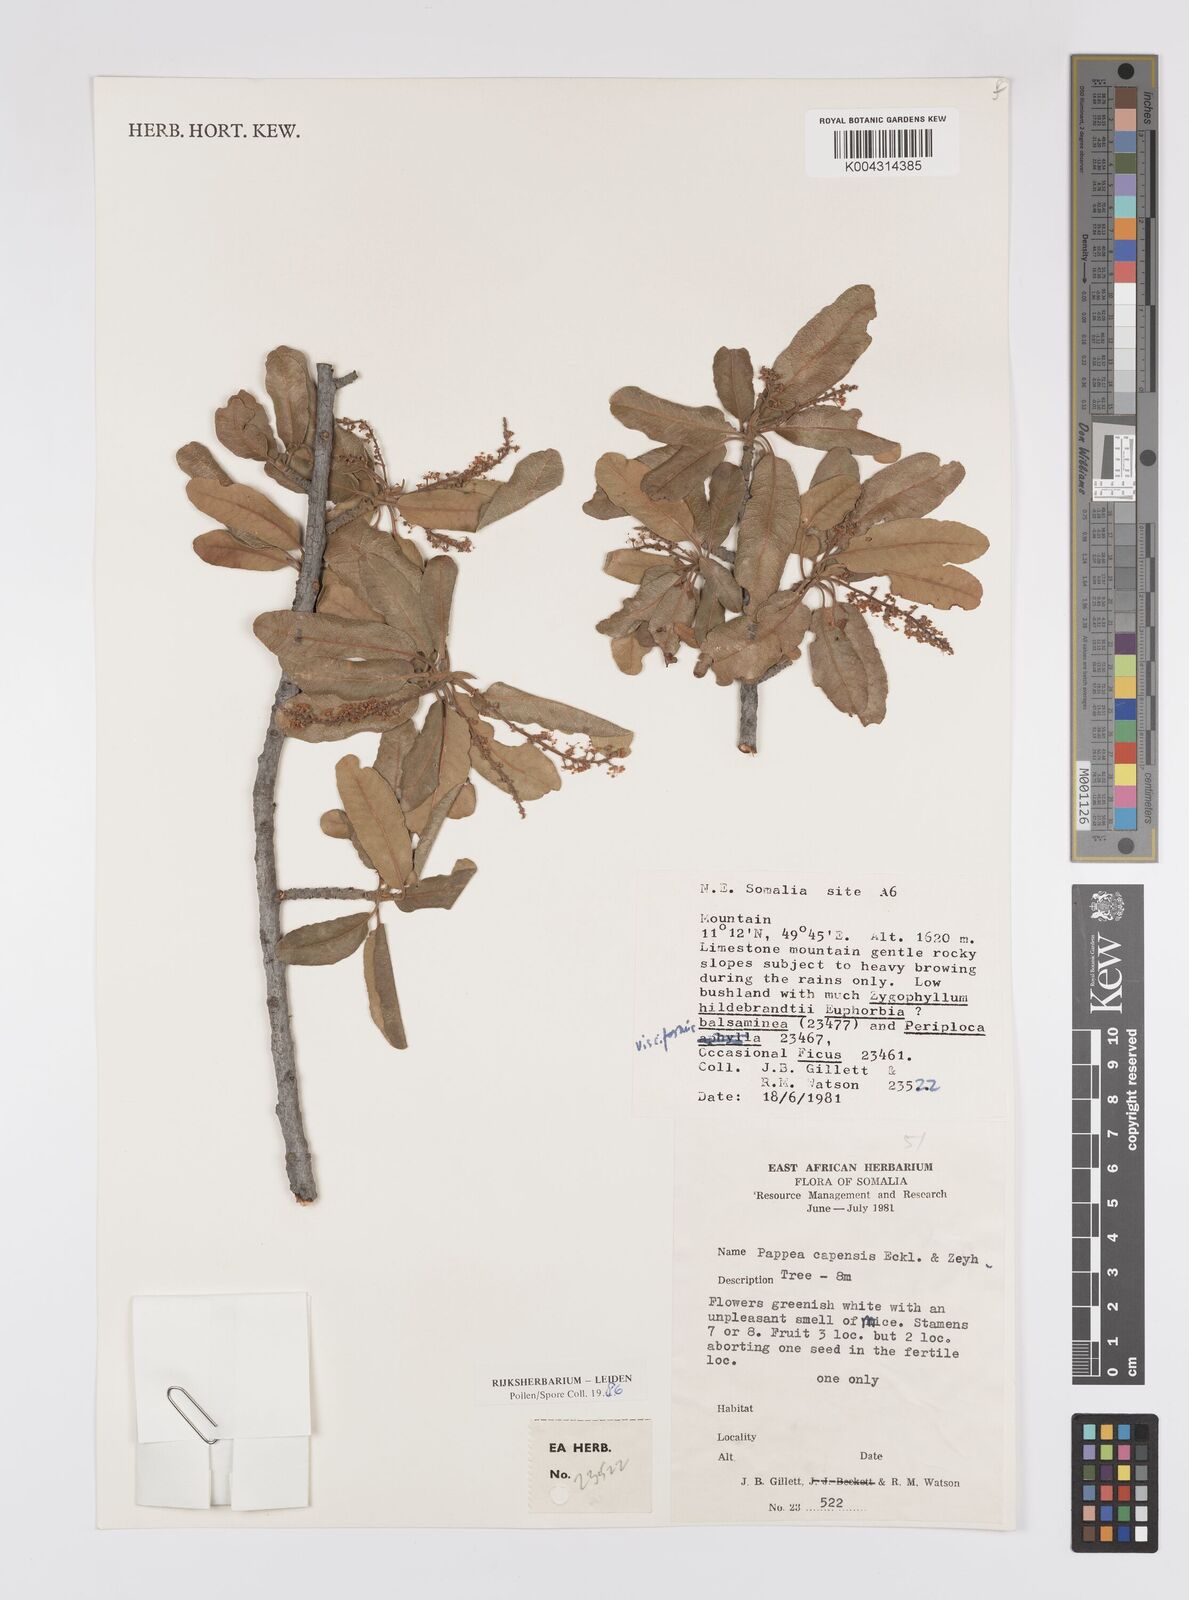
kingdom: Plantae
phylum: Tracheophyta
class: Magnoliopsida
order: Sapindales
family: Sapindaceae
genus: Pappea
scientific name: Pappea capensis
